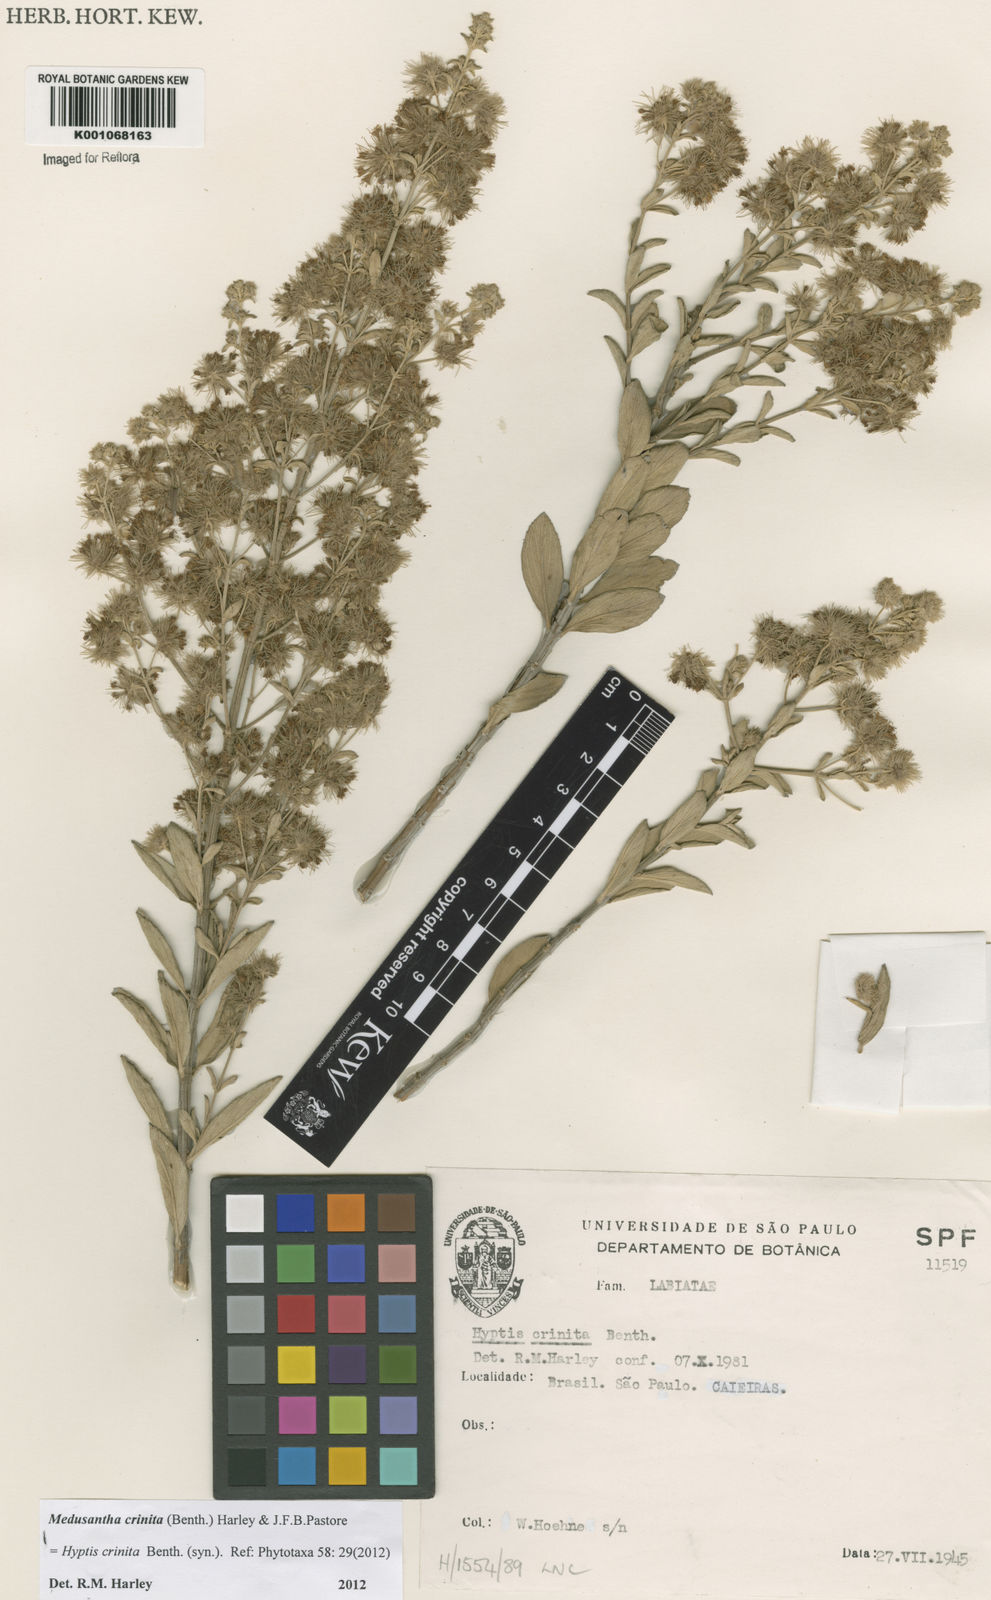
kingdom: Plantae
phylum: Tracheophyta
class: Magnoliopsida
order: Lamiales
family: Lamiaceae
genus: Medusantha
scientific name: Medusantha crinita
